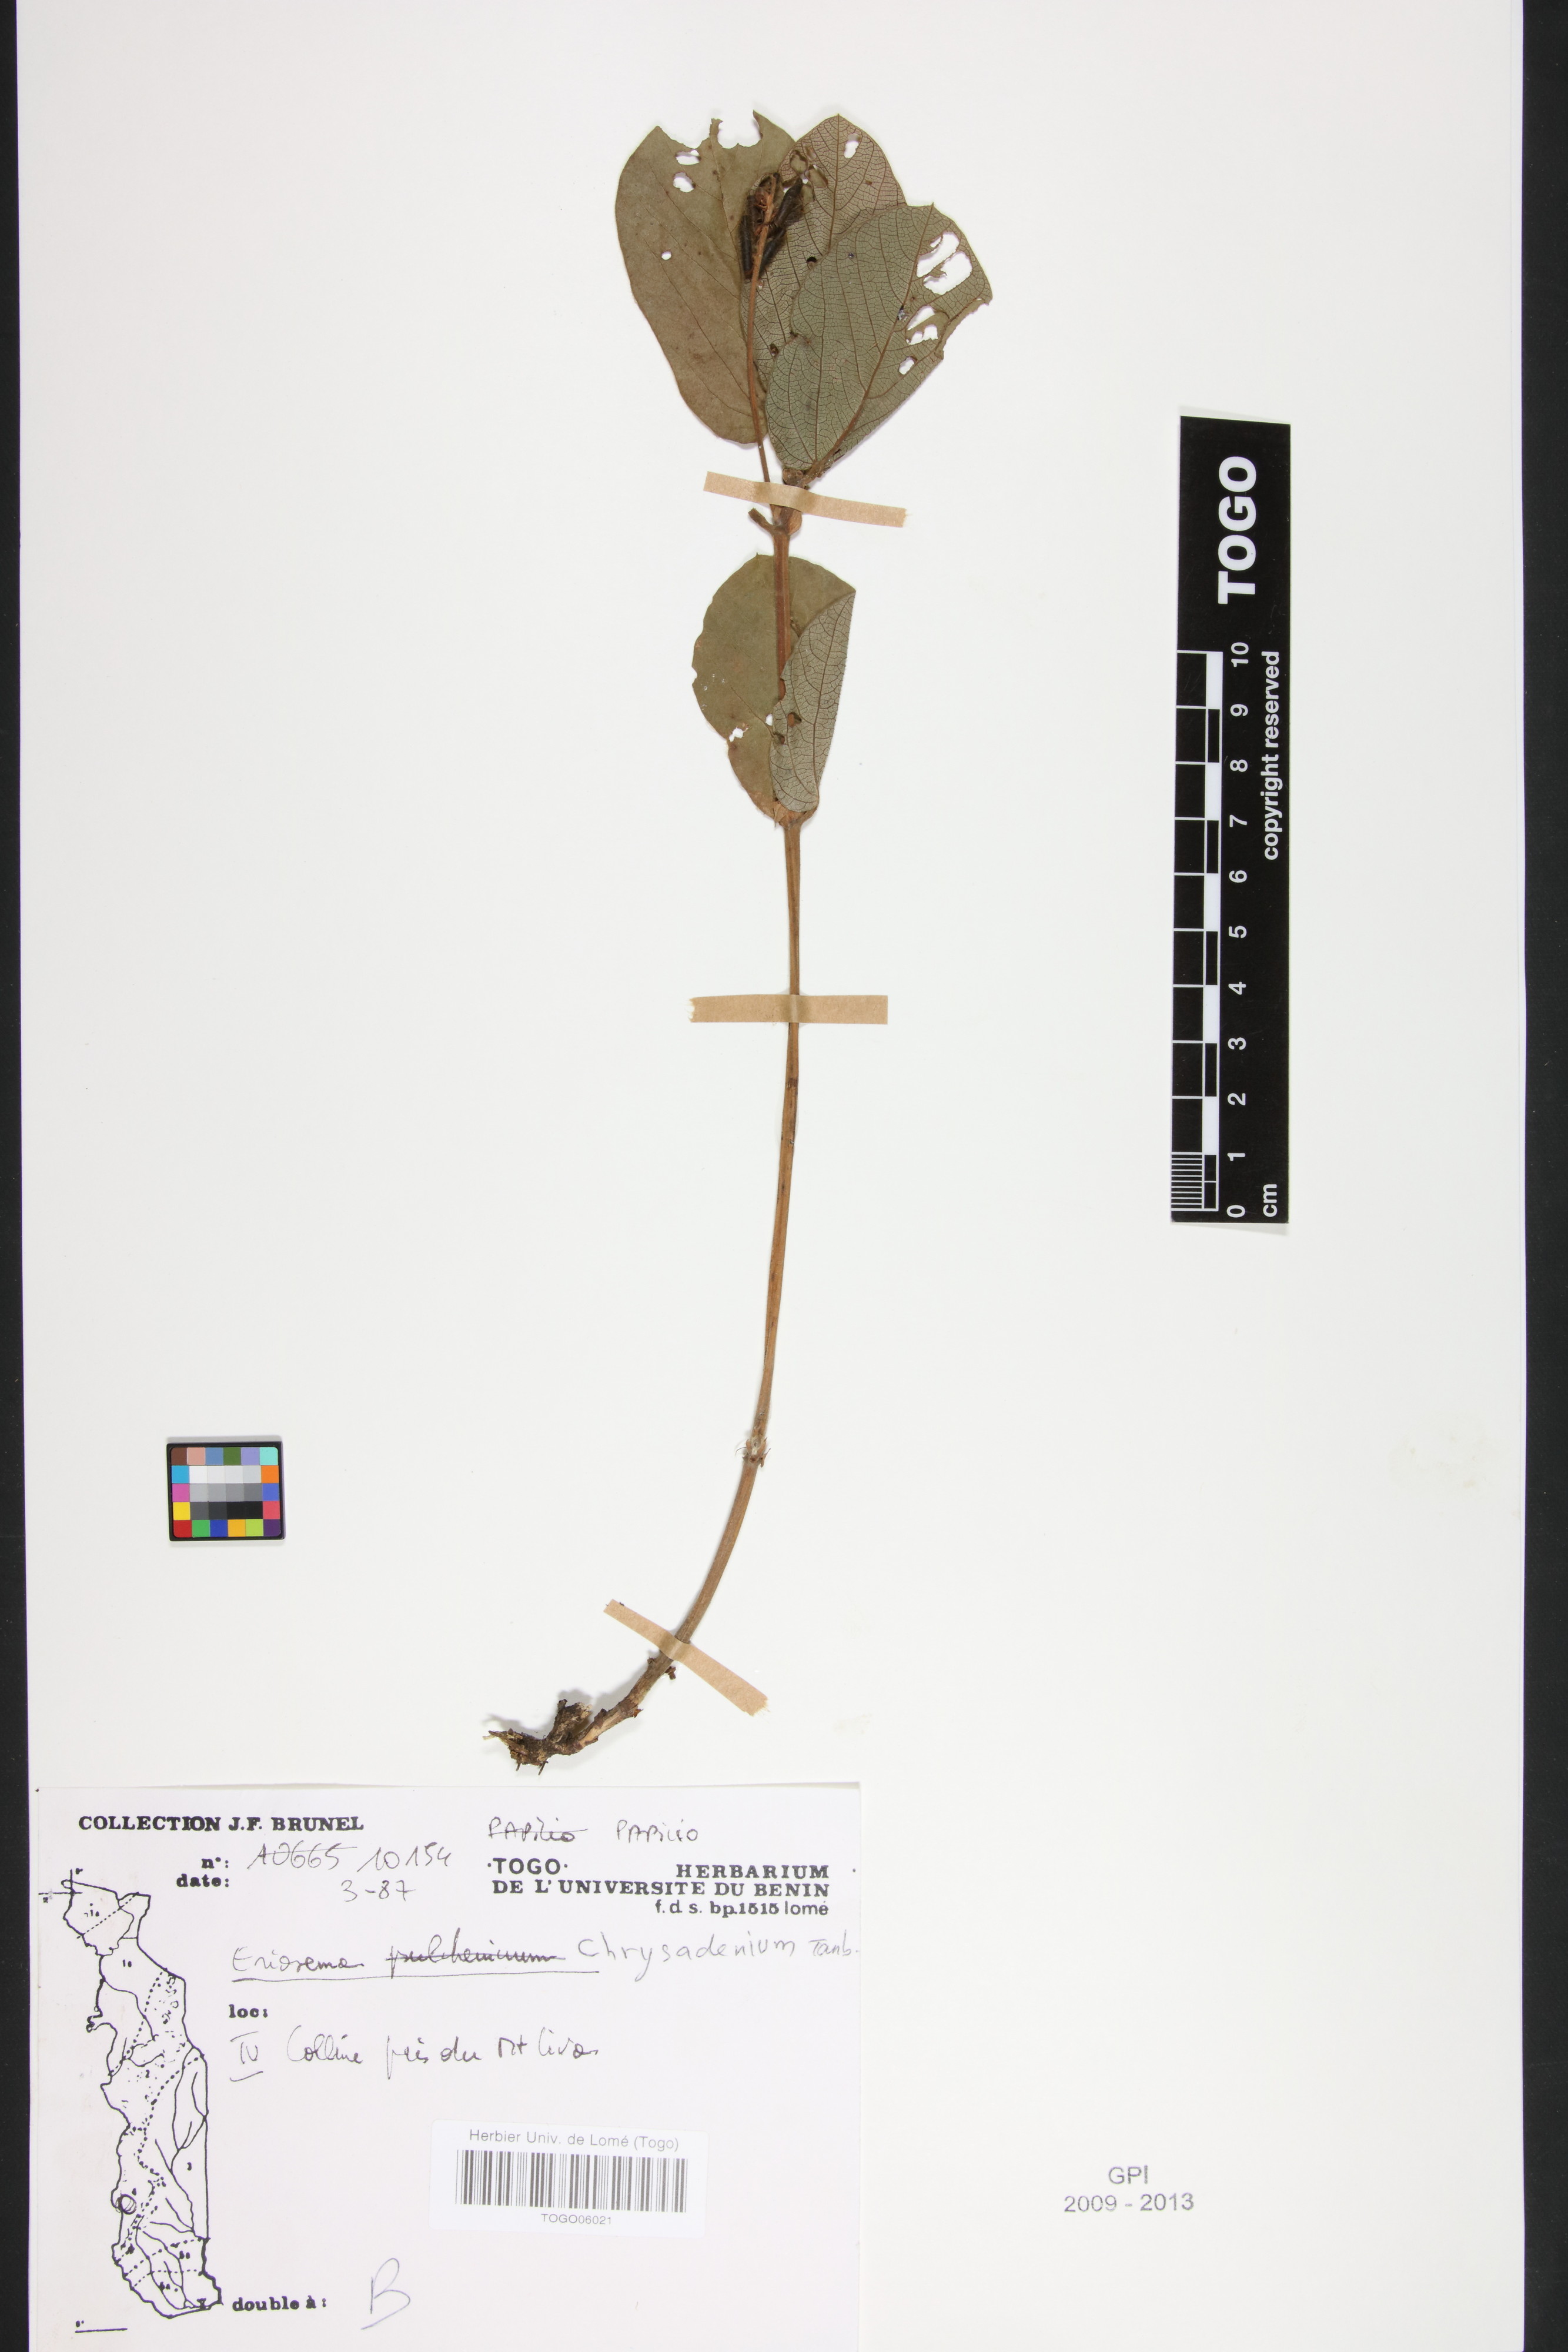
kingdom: Plantae
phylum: Tracheophyta
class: Magnoliopsida
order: Fabales
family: Fabaceae
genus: Eriosema
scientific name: Eriosema chrysadenium
